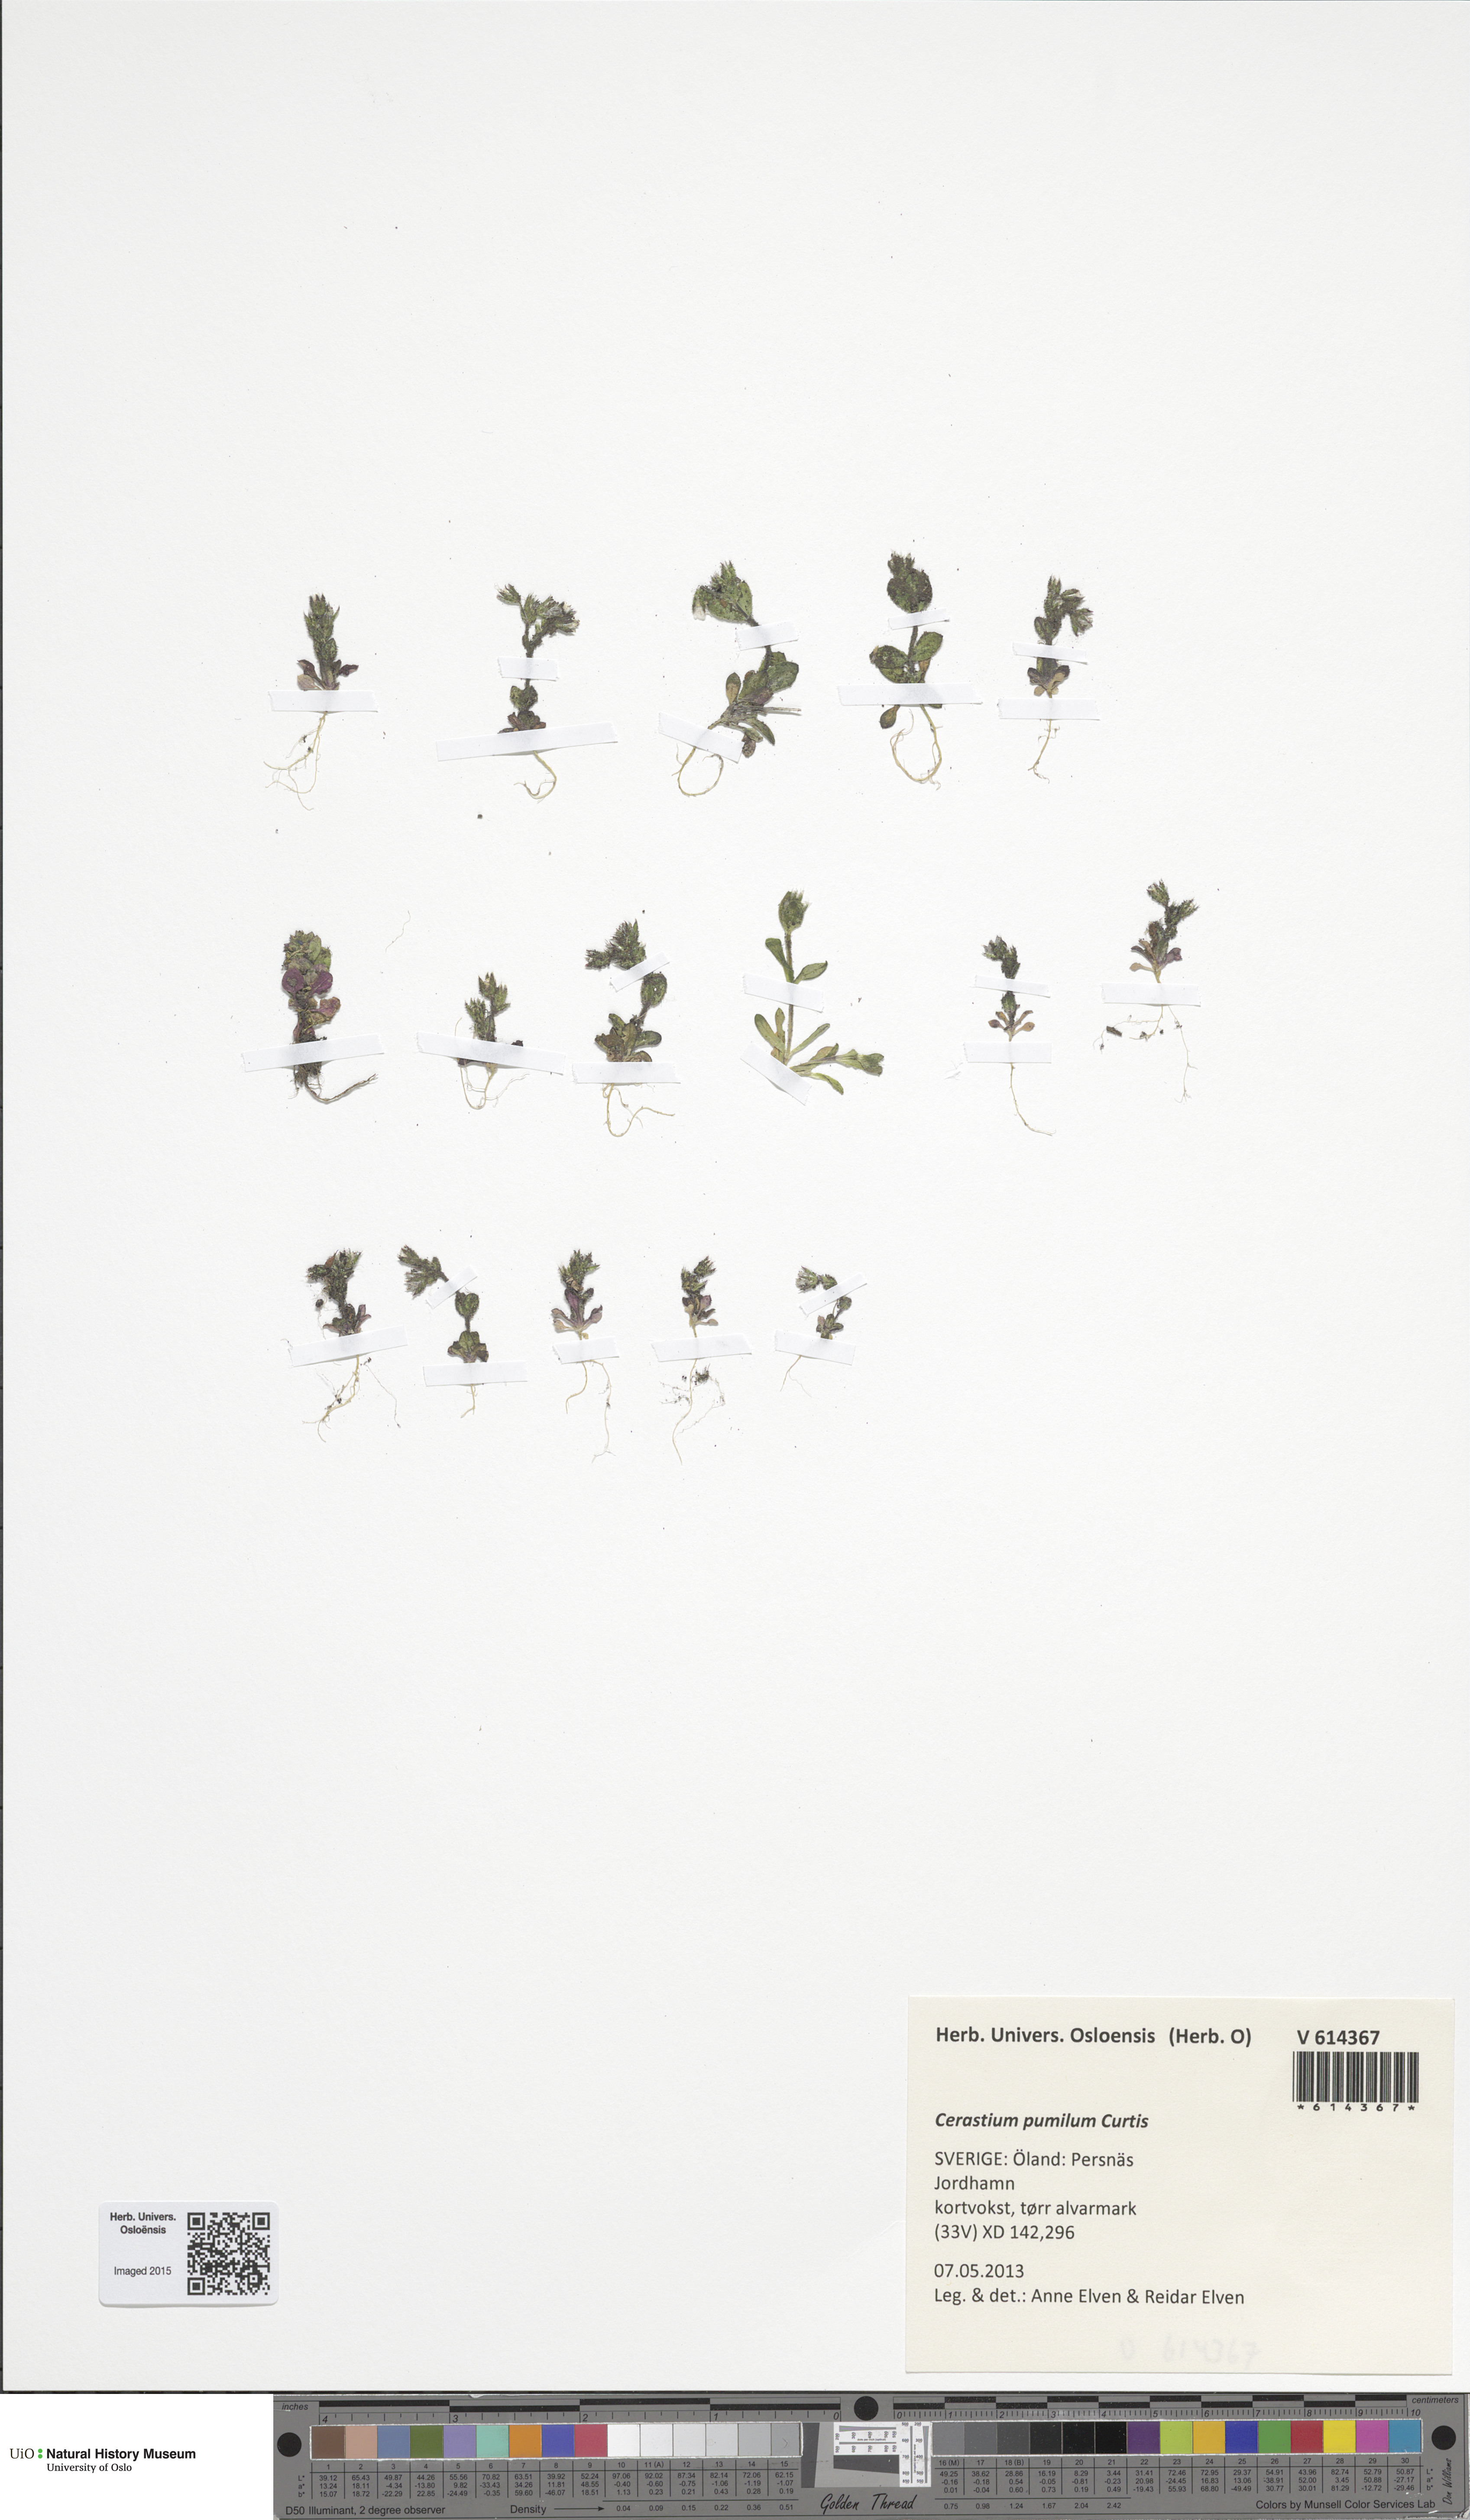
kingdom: Plantae
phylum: Tracheophyta
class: Magnoliopsida
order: Caryophyllales
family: Caryophyllaceae
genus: Cerastium
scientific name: Cerastium pumilum
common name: Dwarf mouse-ear
